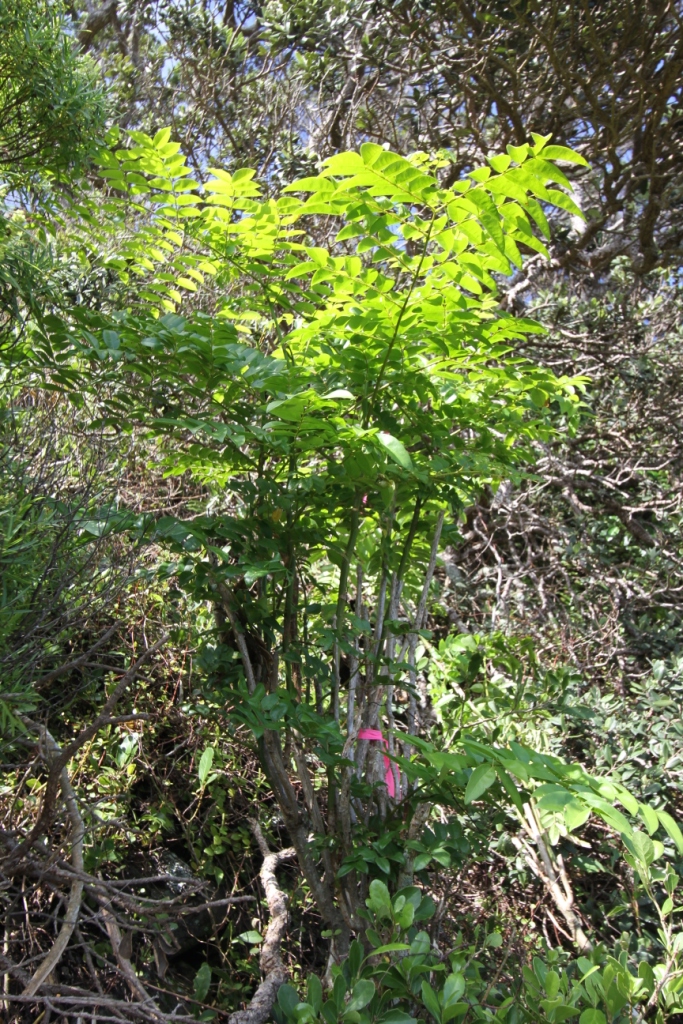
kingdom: Plantae
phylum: Tracheophyta
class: Magnoliopsida
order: Fabales
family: Fabaceae
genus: Guilandina
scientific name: Guilandina bonduc
